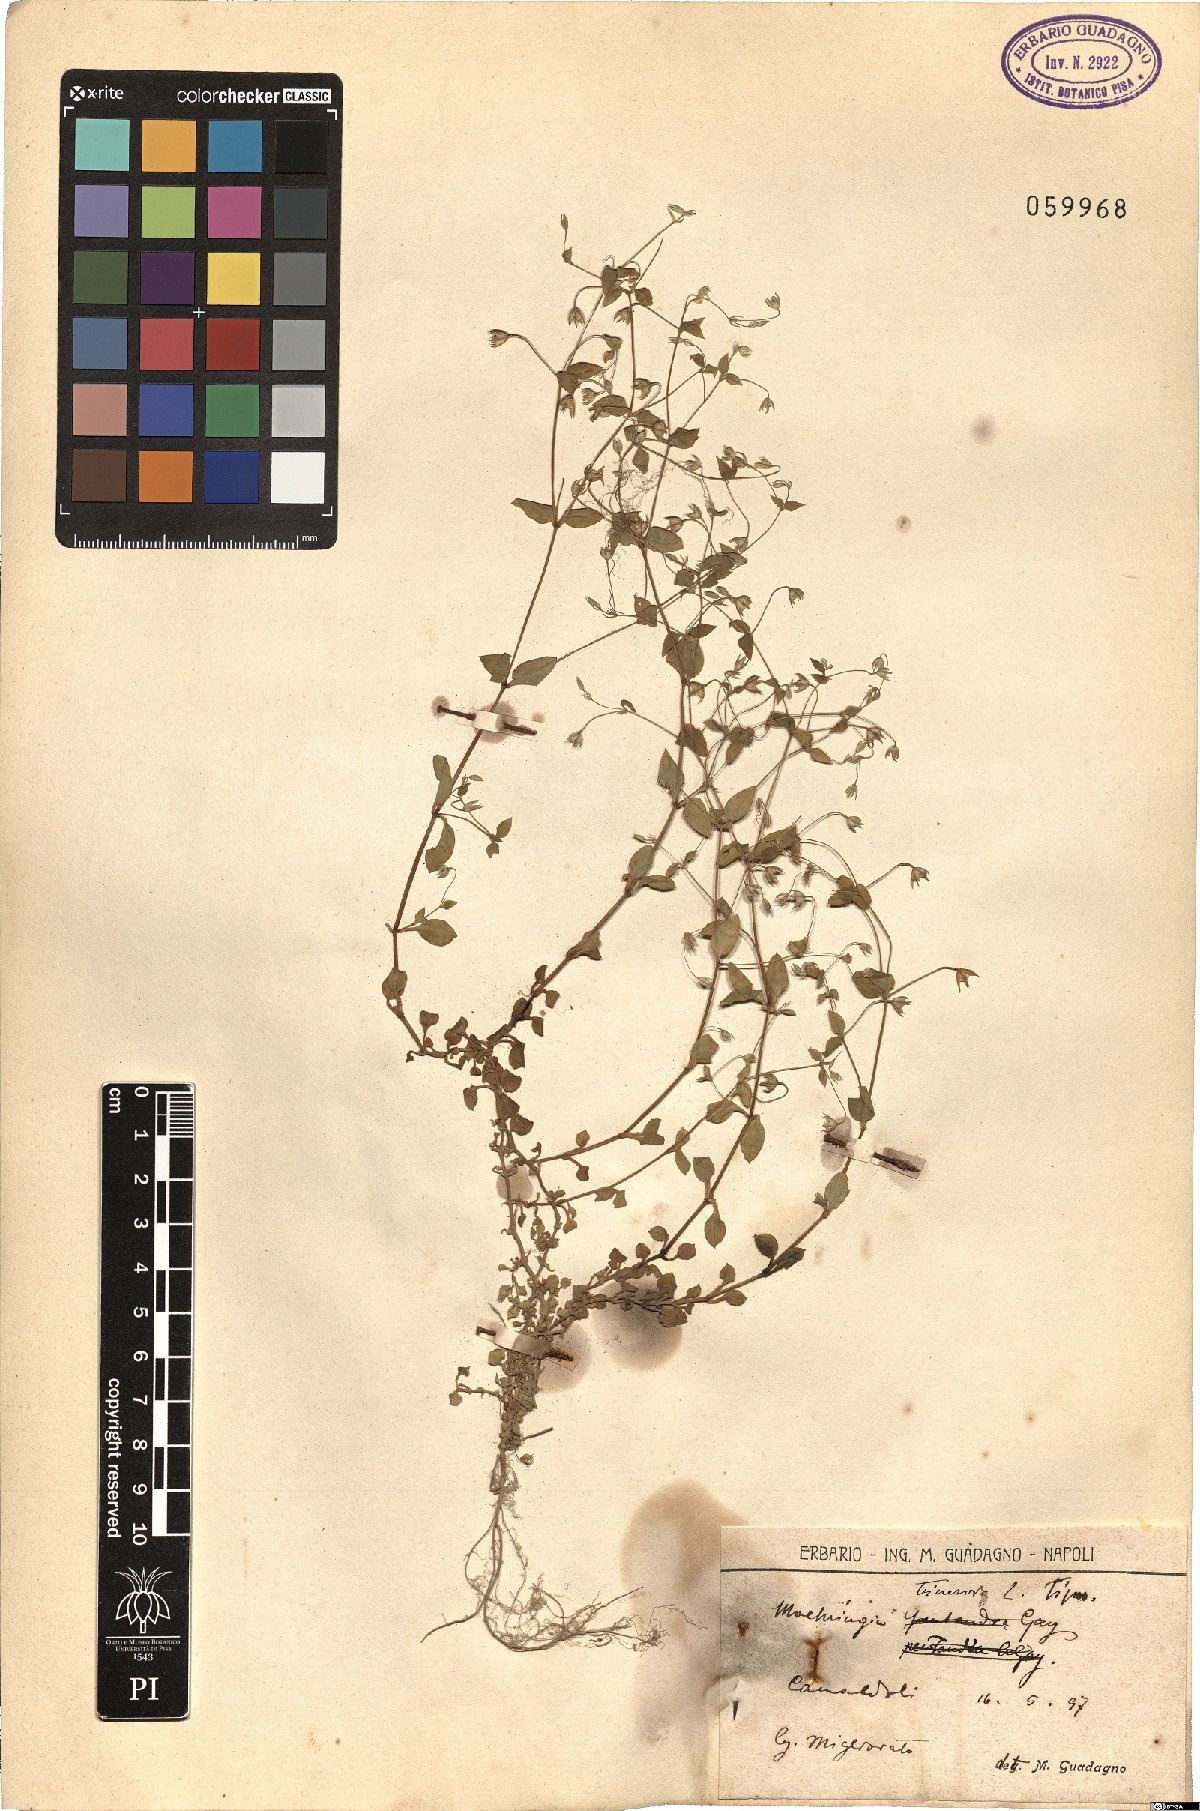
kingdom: Plantae
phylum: Tracheophyta
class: Magnoliopsida
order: Caryophyllales
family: Caryophyllaceae
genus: Moehringia
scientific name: Moehringia trinervia
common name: Three-nerved sandwort
